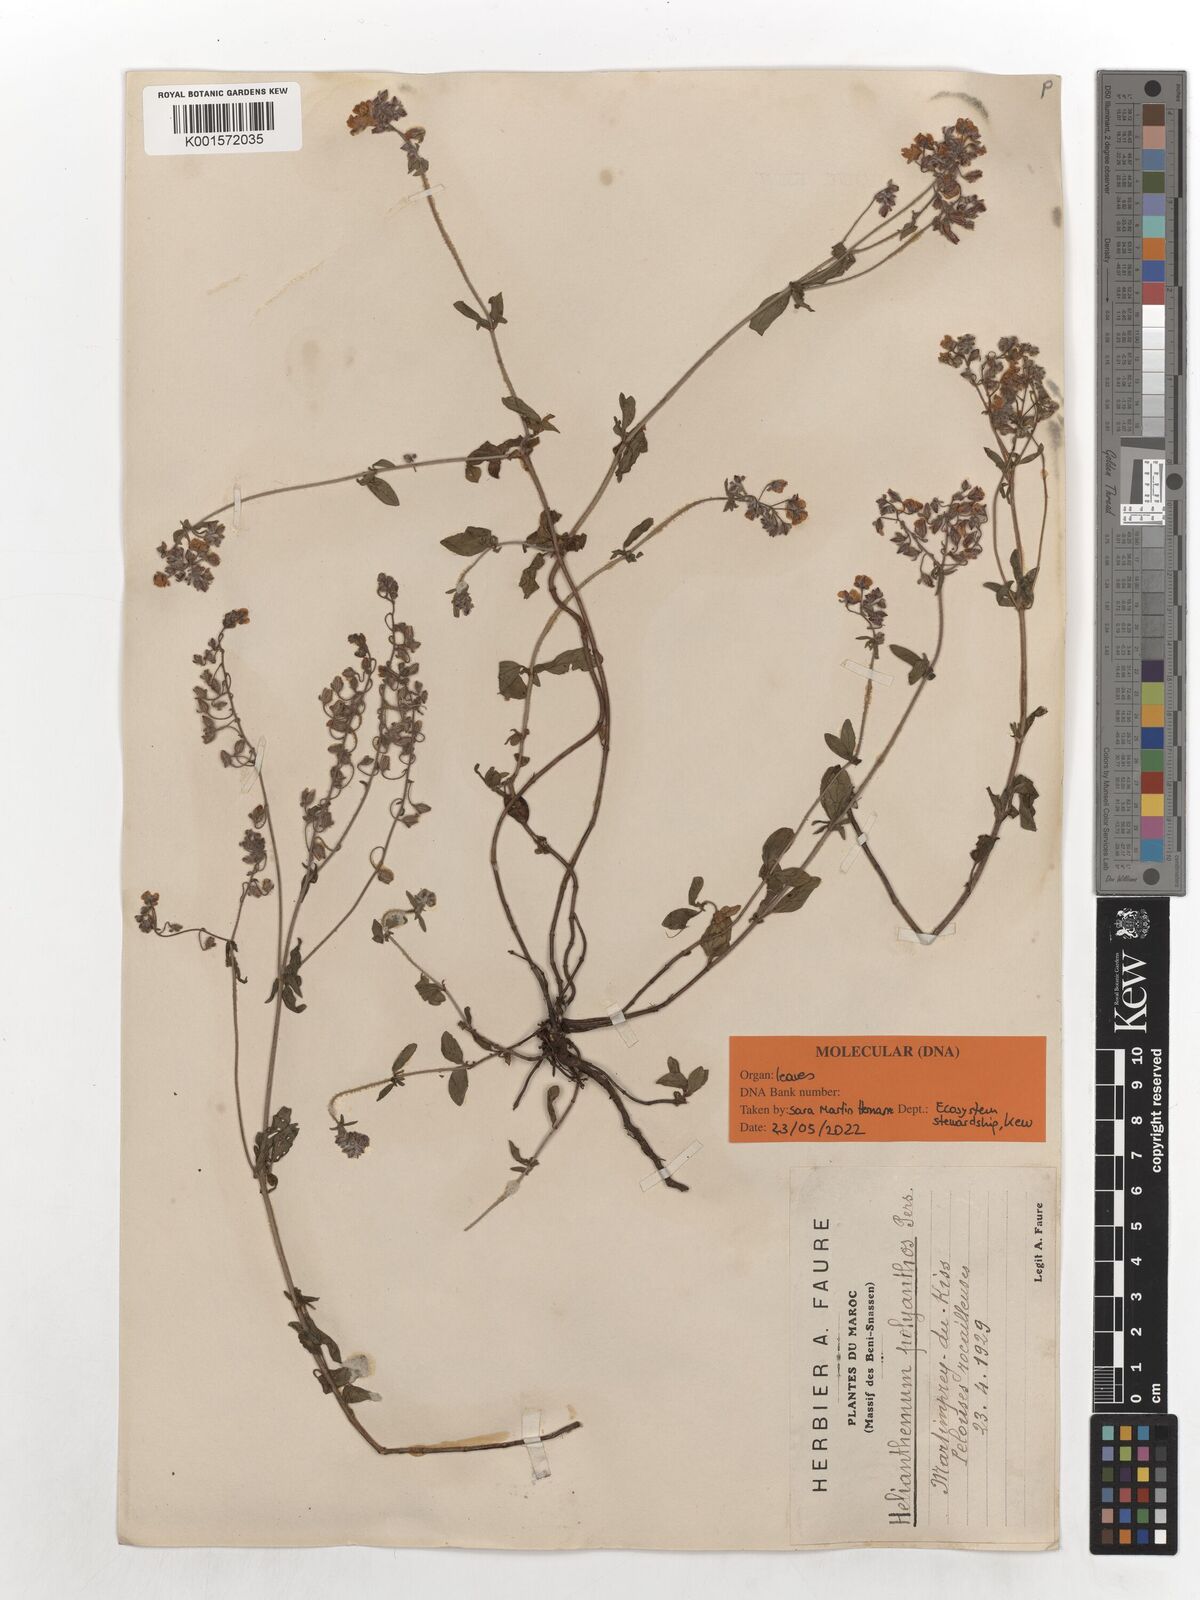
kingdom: Plantae
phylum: Tracheophyta
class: Magnoliopsida
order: Malvales
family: Cistaceae
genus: Helianthemum
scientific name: Helianthemum polyanthum
